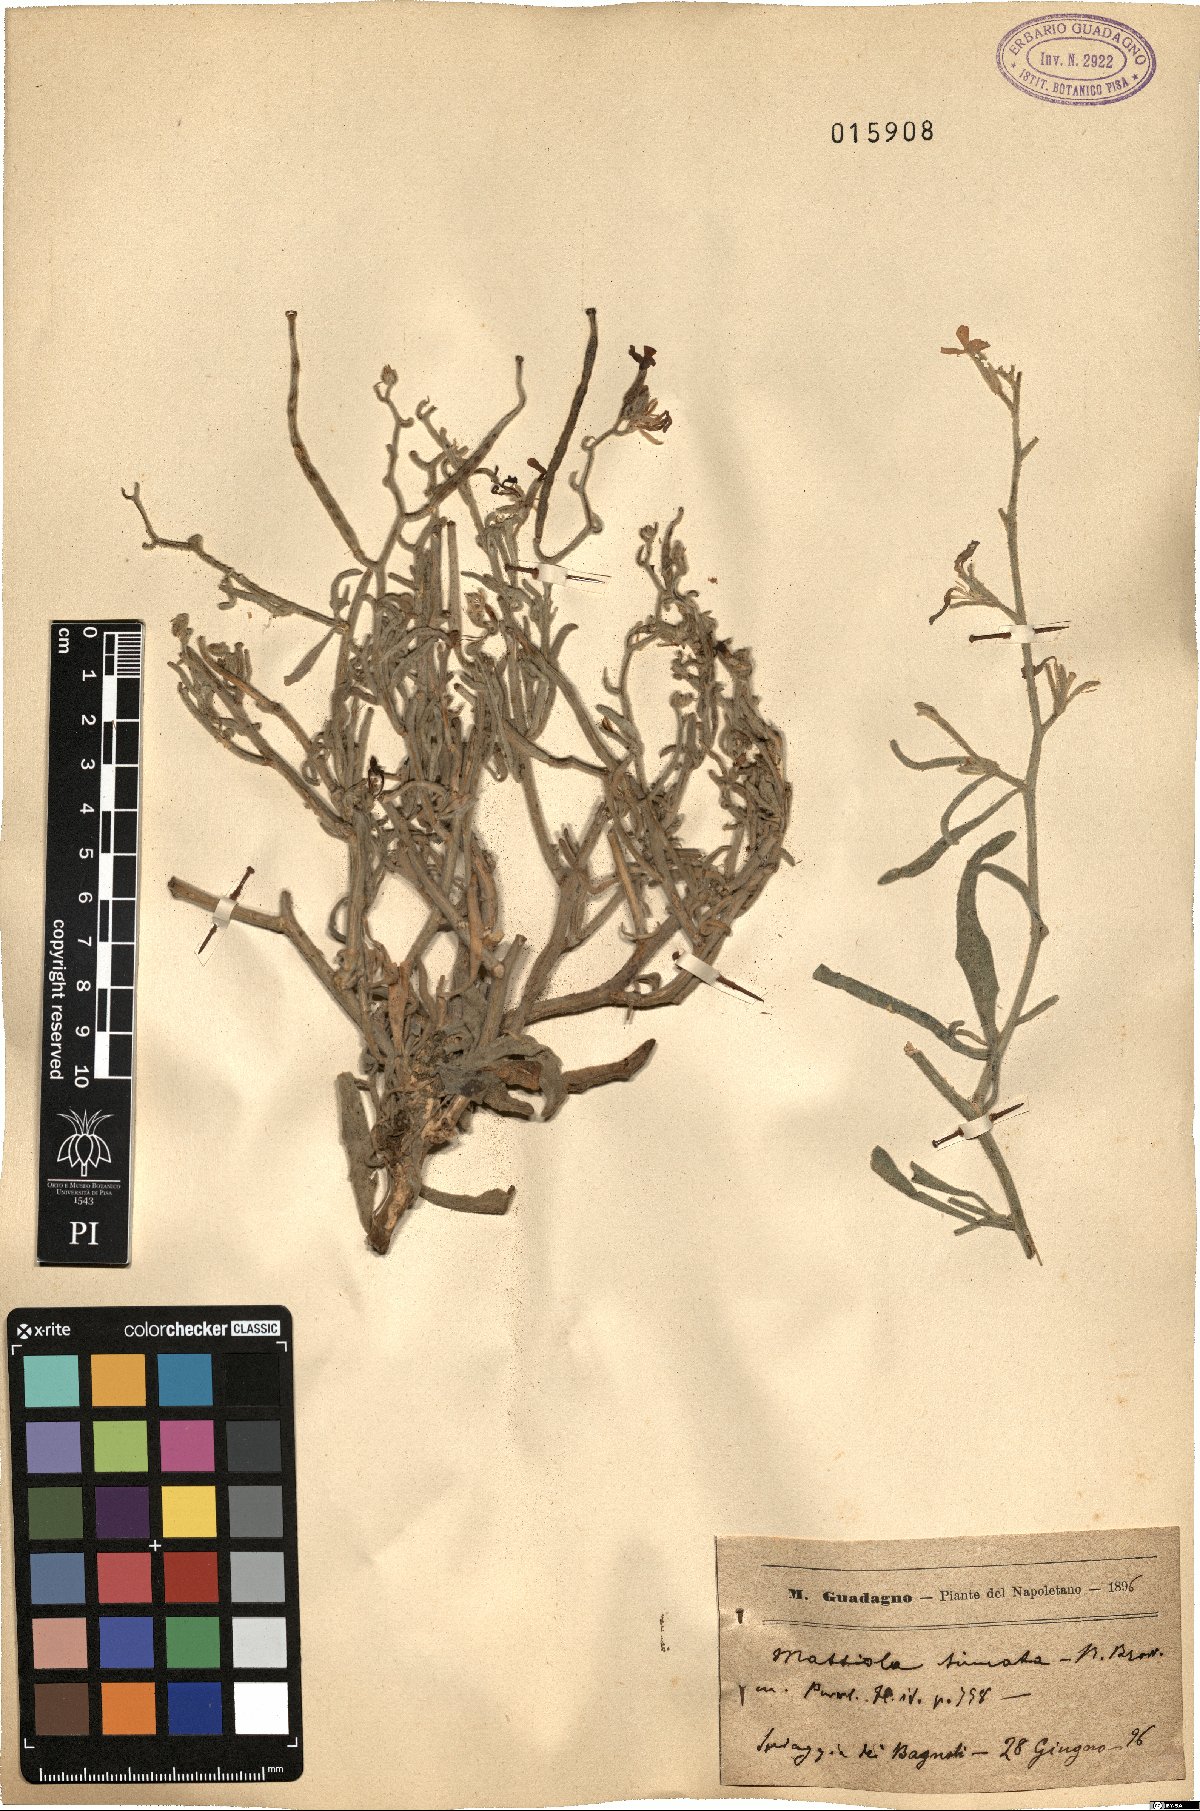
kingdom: Plantae
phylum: Tracheophyta
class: Magnoliopsida
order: Brassicales
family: Brassicaceae
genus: Matthiola
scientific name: Matthiola sinuata
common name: Sea stock
